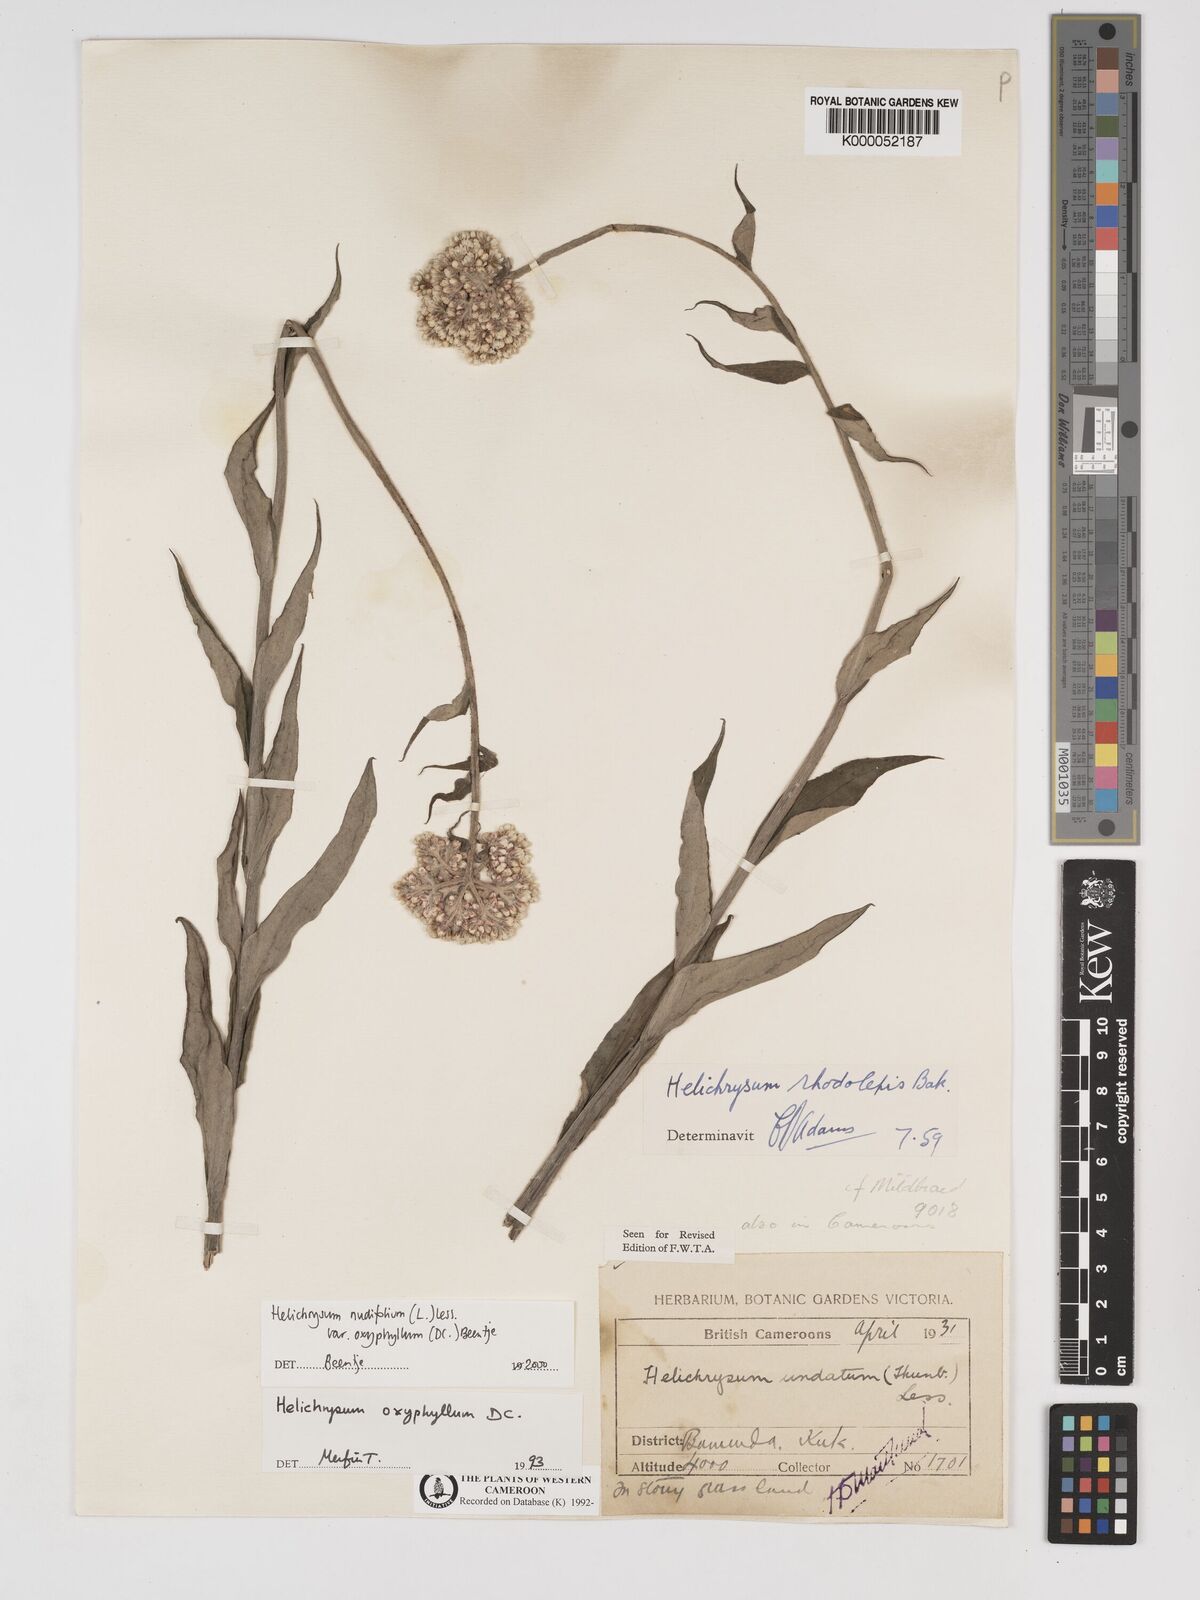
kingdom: Plantae
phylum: Tracheophyta
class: Magnoliopsida
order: Asterales
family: Asteraceae
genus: Helichrysum
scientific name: Helichrysum nudifolium
